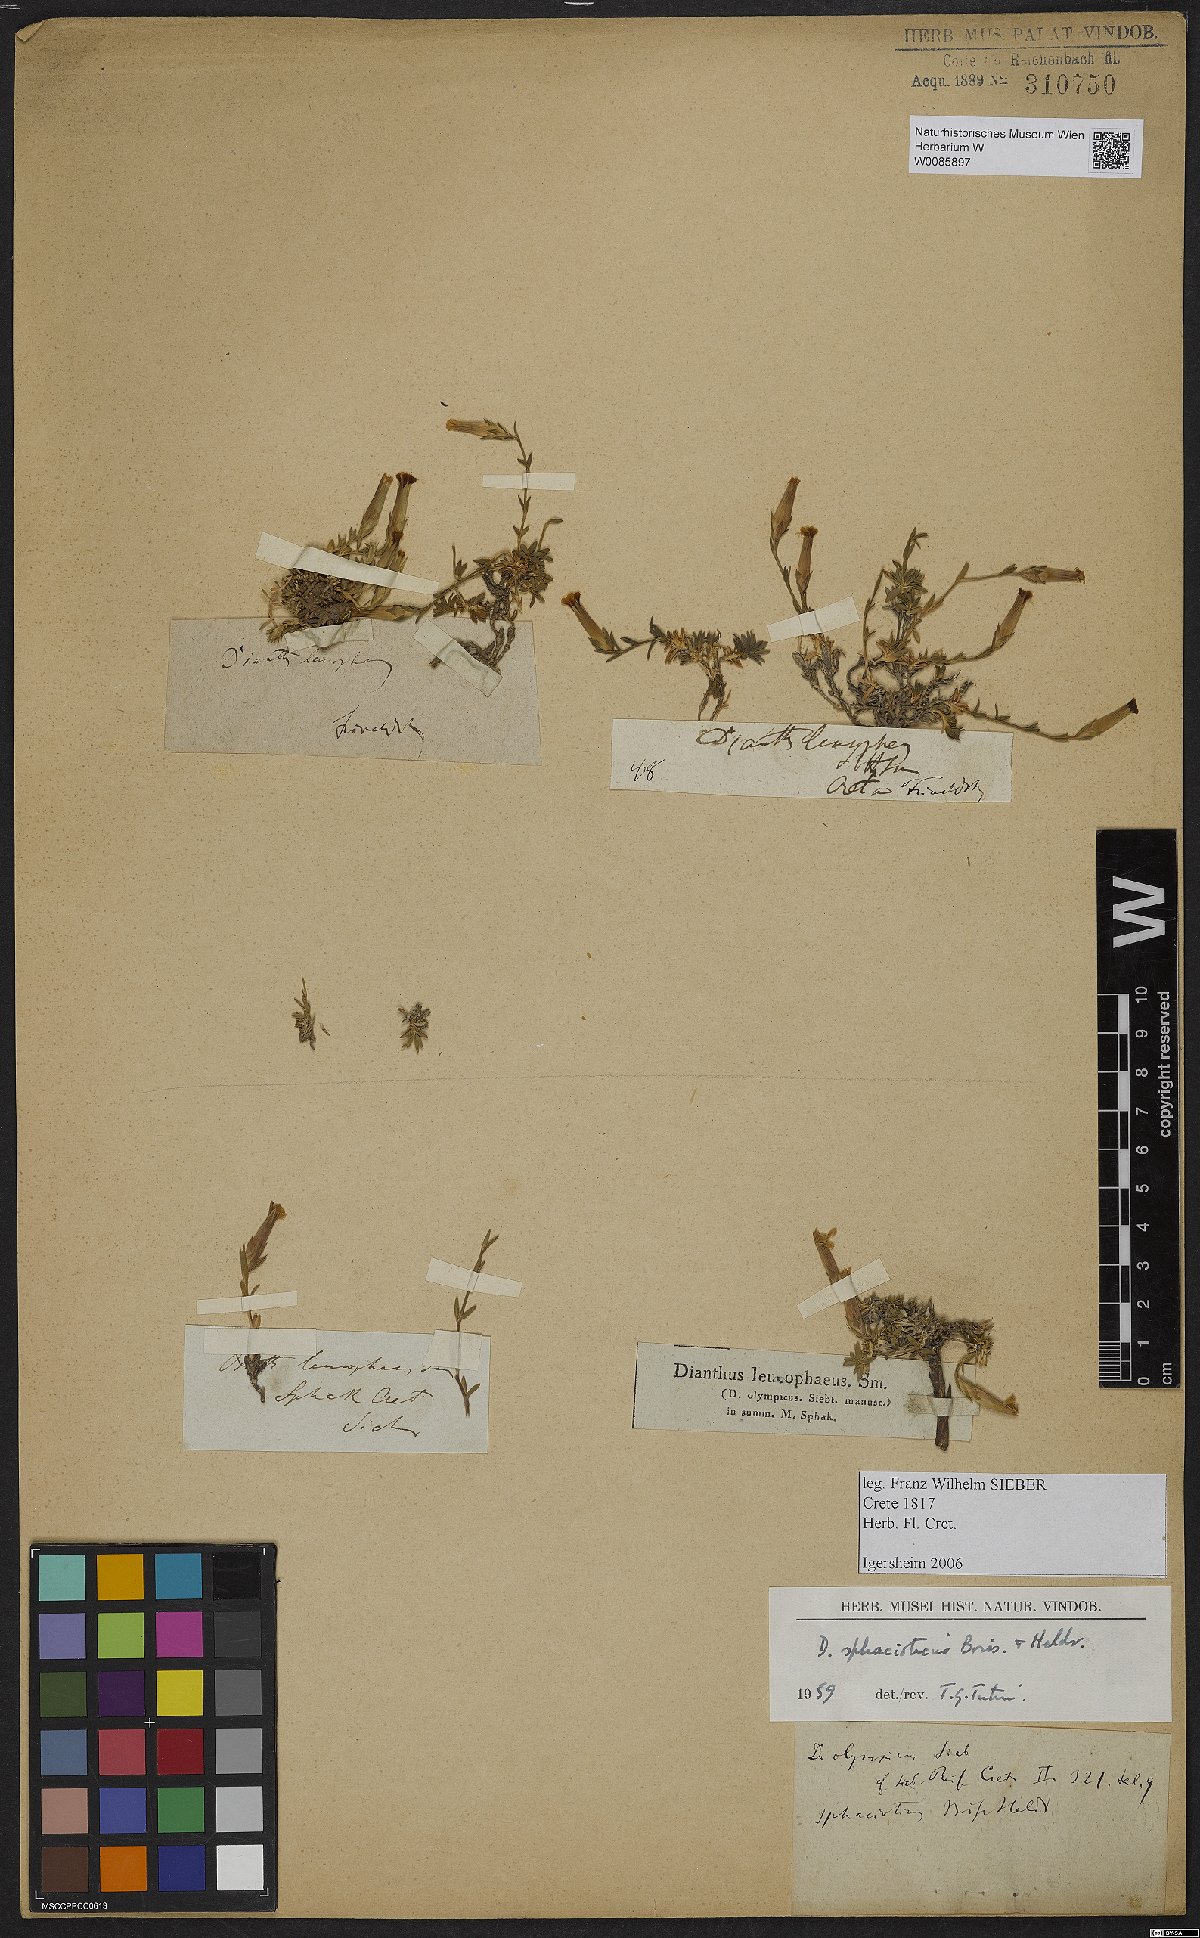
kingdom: Plantae
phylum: Tracheophyta
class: Magnoliopsida
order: Caryophyllales
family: Caryophyllaceae
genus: Dianthus
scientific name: Dianthus sphacioticus
